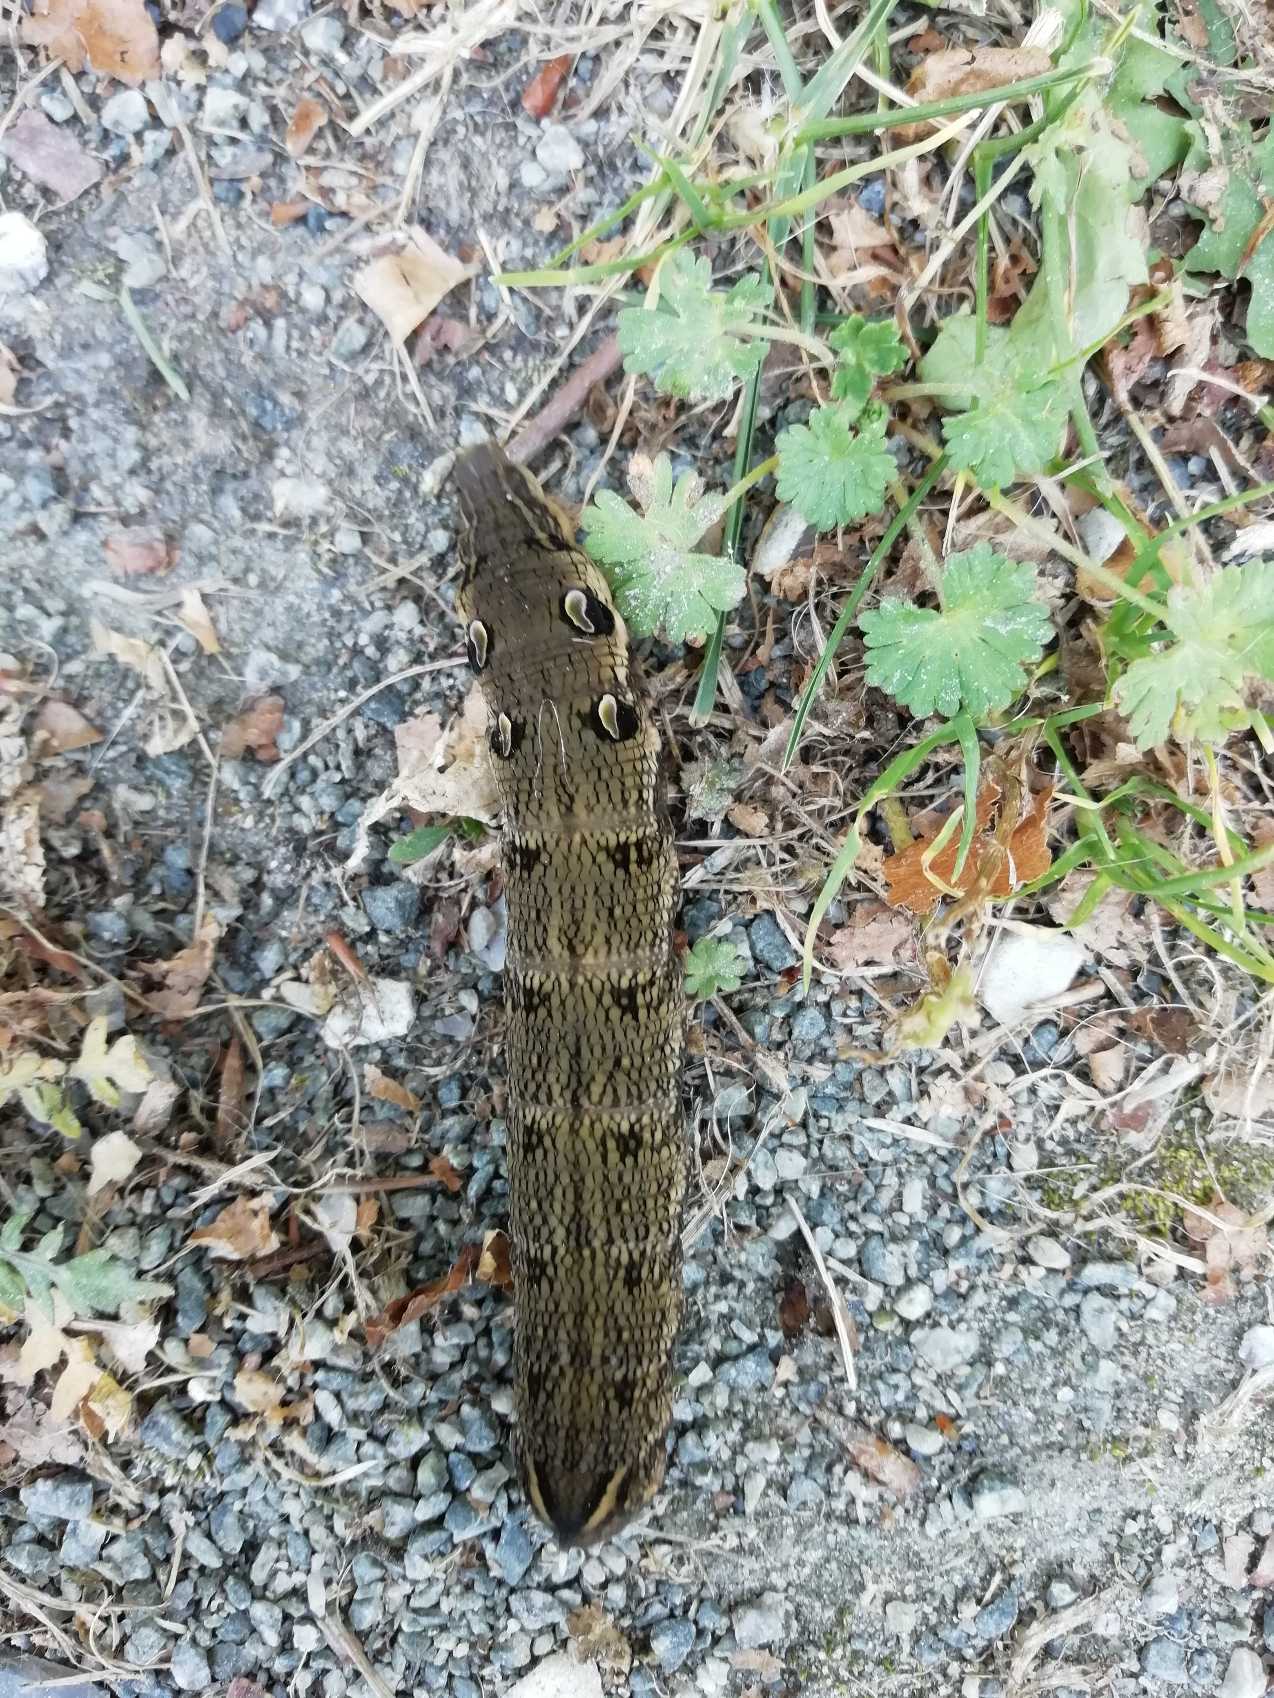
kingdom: Animalia
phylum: Arthropoda
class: Insecta
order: Lepidoptera
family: Sphingidae
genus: Deilephila
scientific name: Deilephila elpenor
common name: Dueurtsværmer
